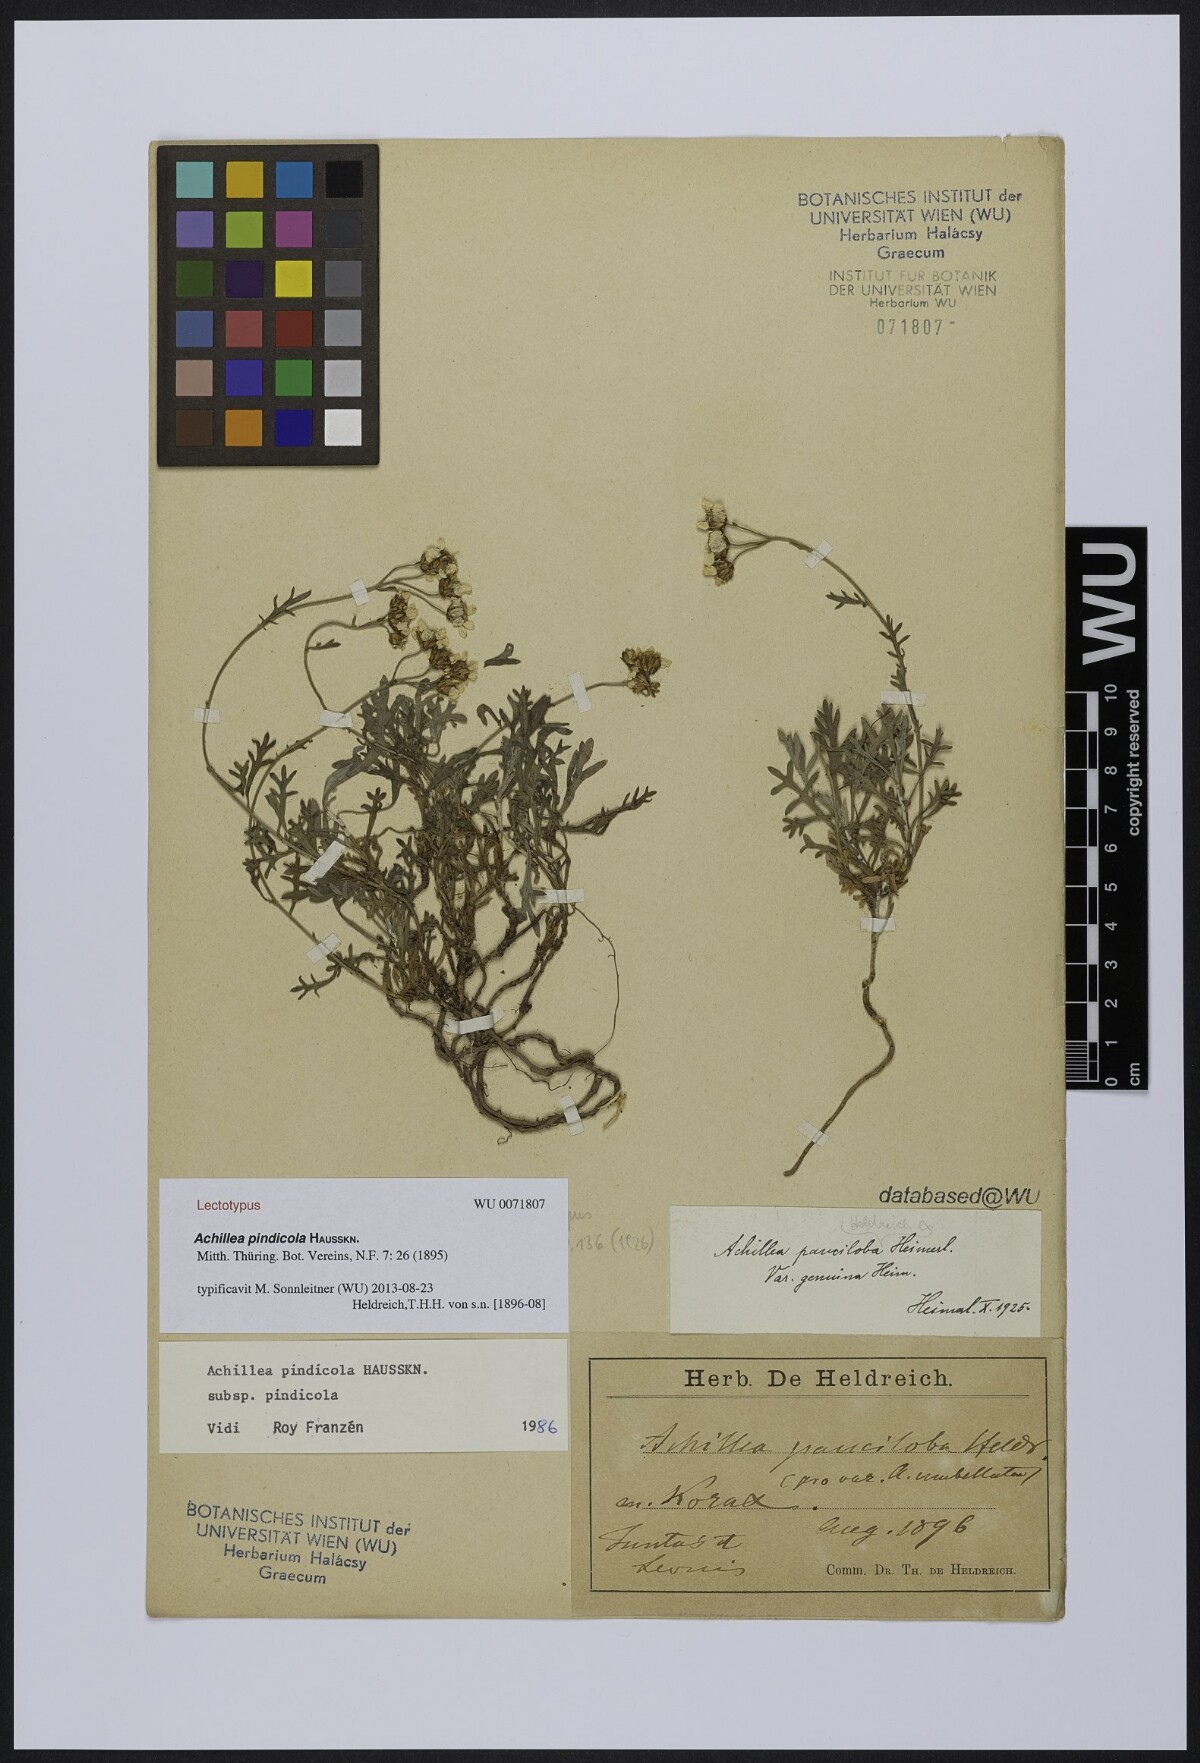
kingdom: Plantae
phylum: Tracheophyta
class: Magnoliopsida
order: Asterales
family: Asteraceae
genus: Achillea
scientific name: Achillea umbellata
